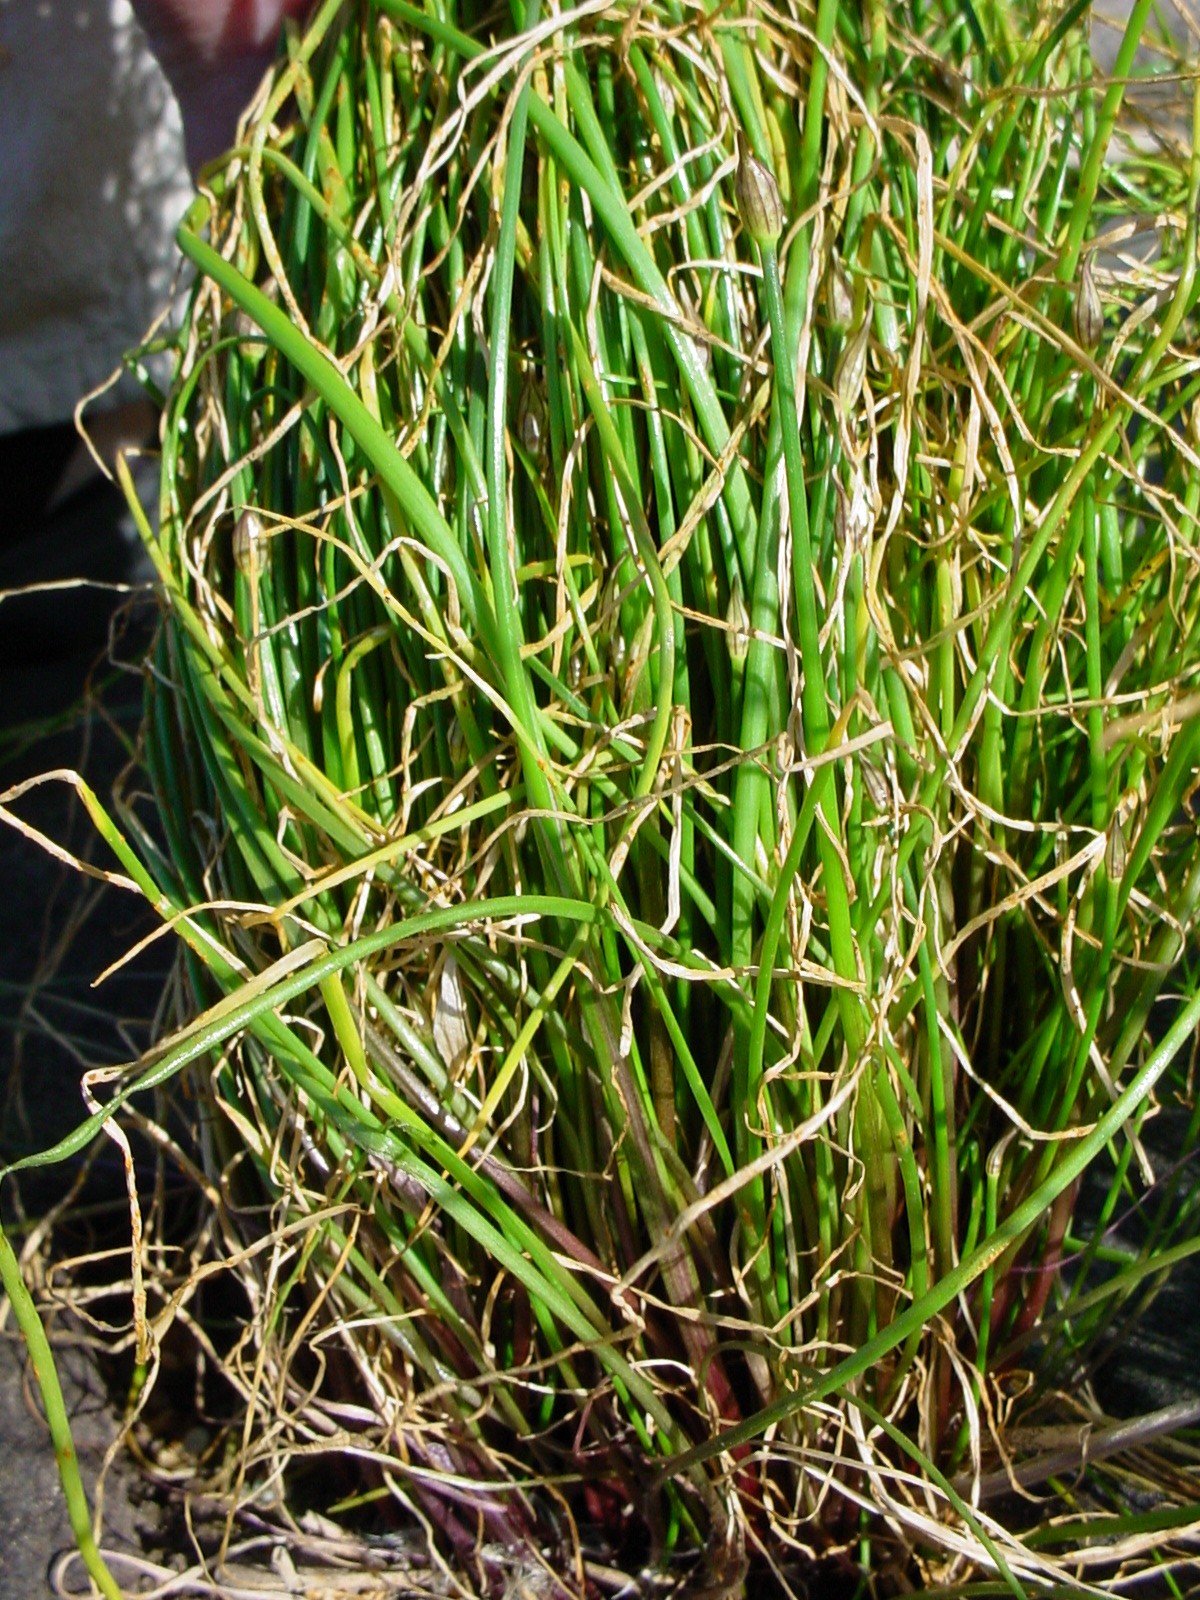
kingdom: Plantae
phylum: Tracheophyta
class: Liliopsida
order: Asparagales
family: Amaryllidaceae
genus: Allium
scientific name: Allium schoenoprasum
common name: Chives
